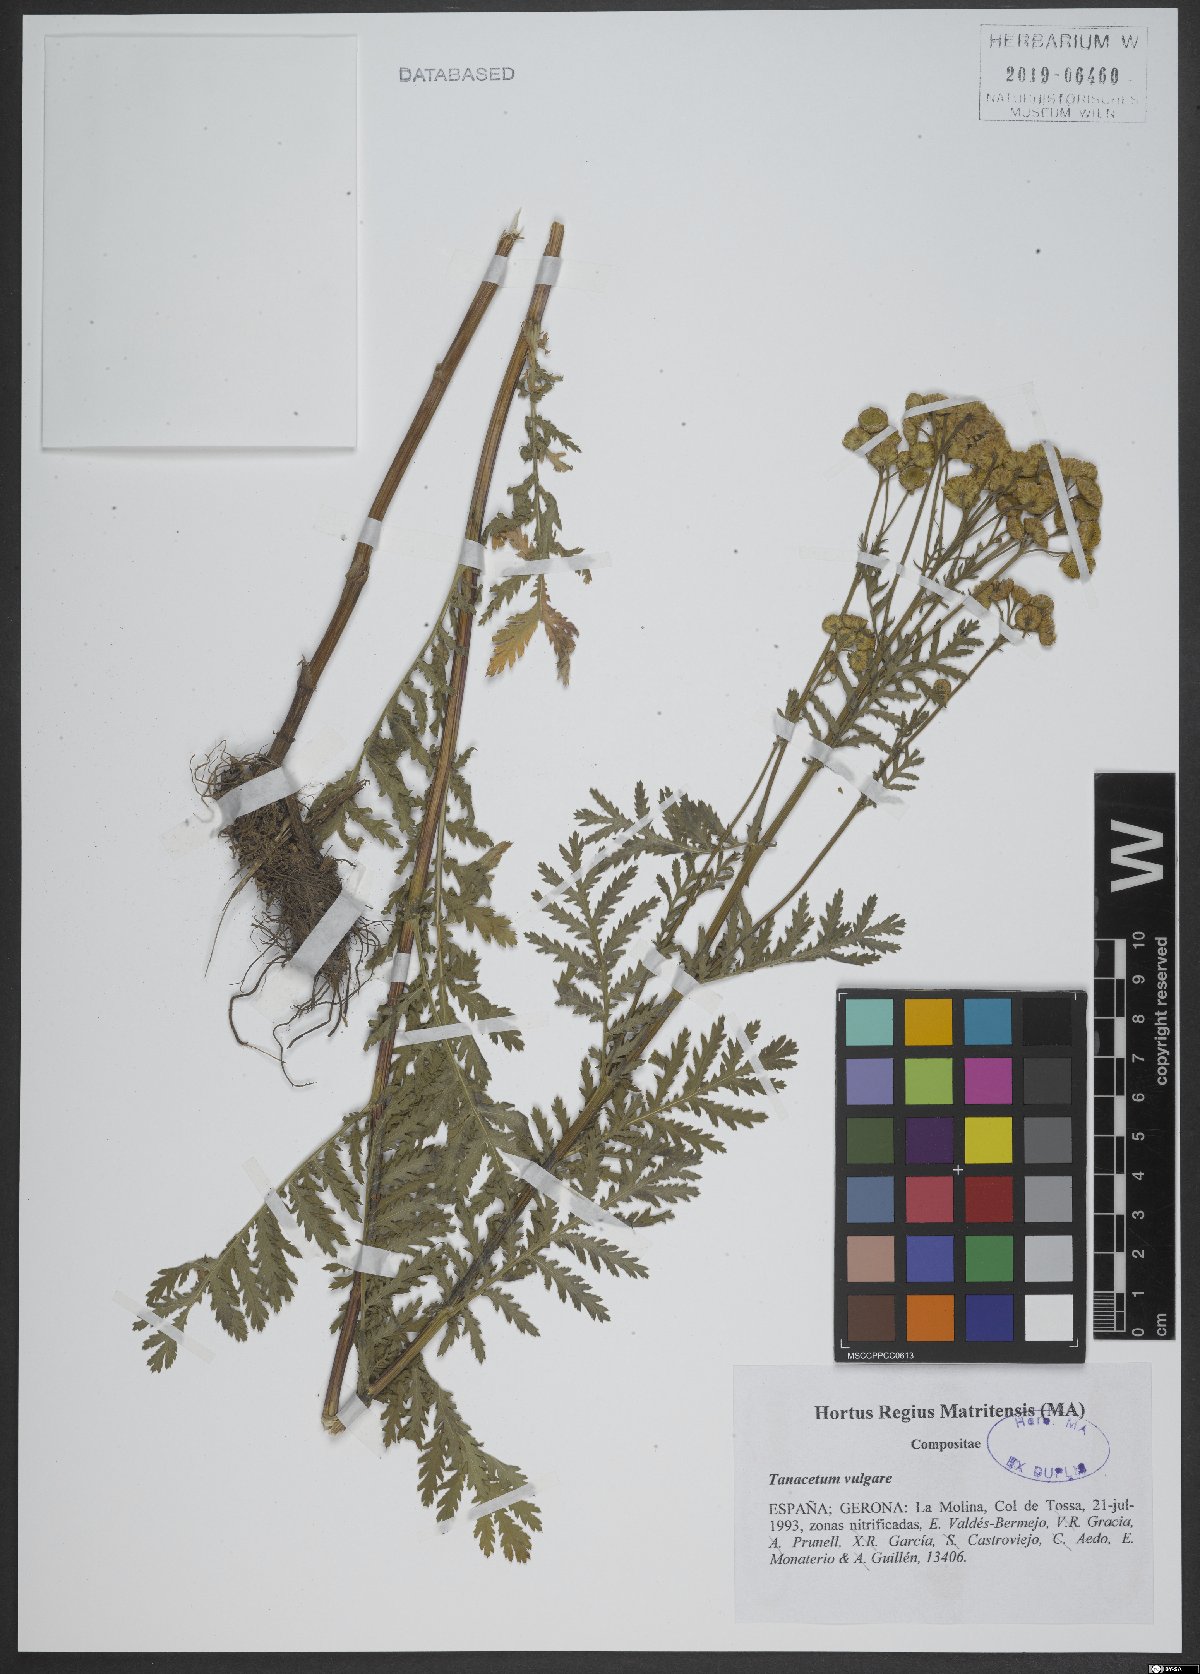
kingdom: Plantae
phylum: Tracheophyta
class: Magnoliopsida
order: Asterales
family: Asteraceae
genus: Tanacetum
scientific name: Tanacetum vulgare
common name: Common tansy
